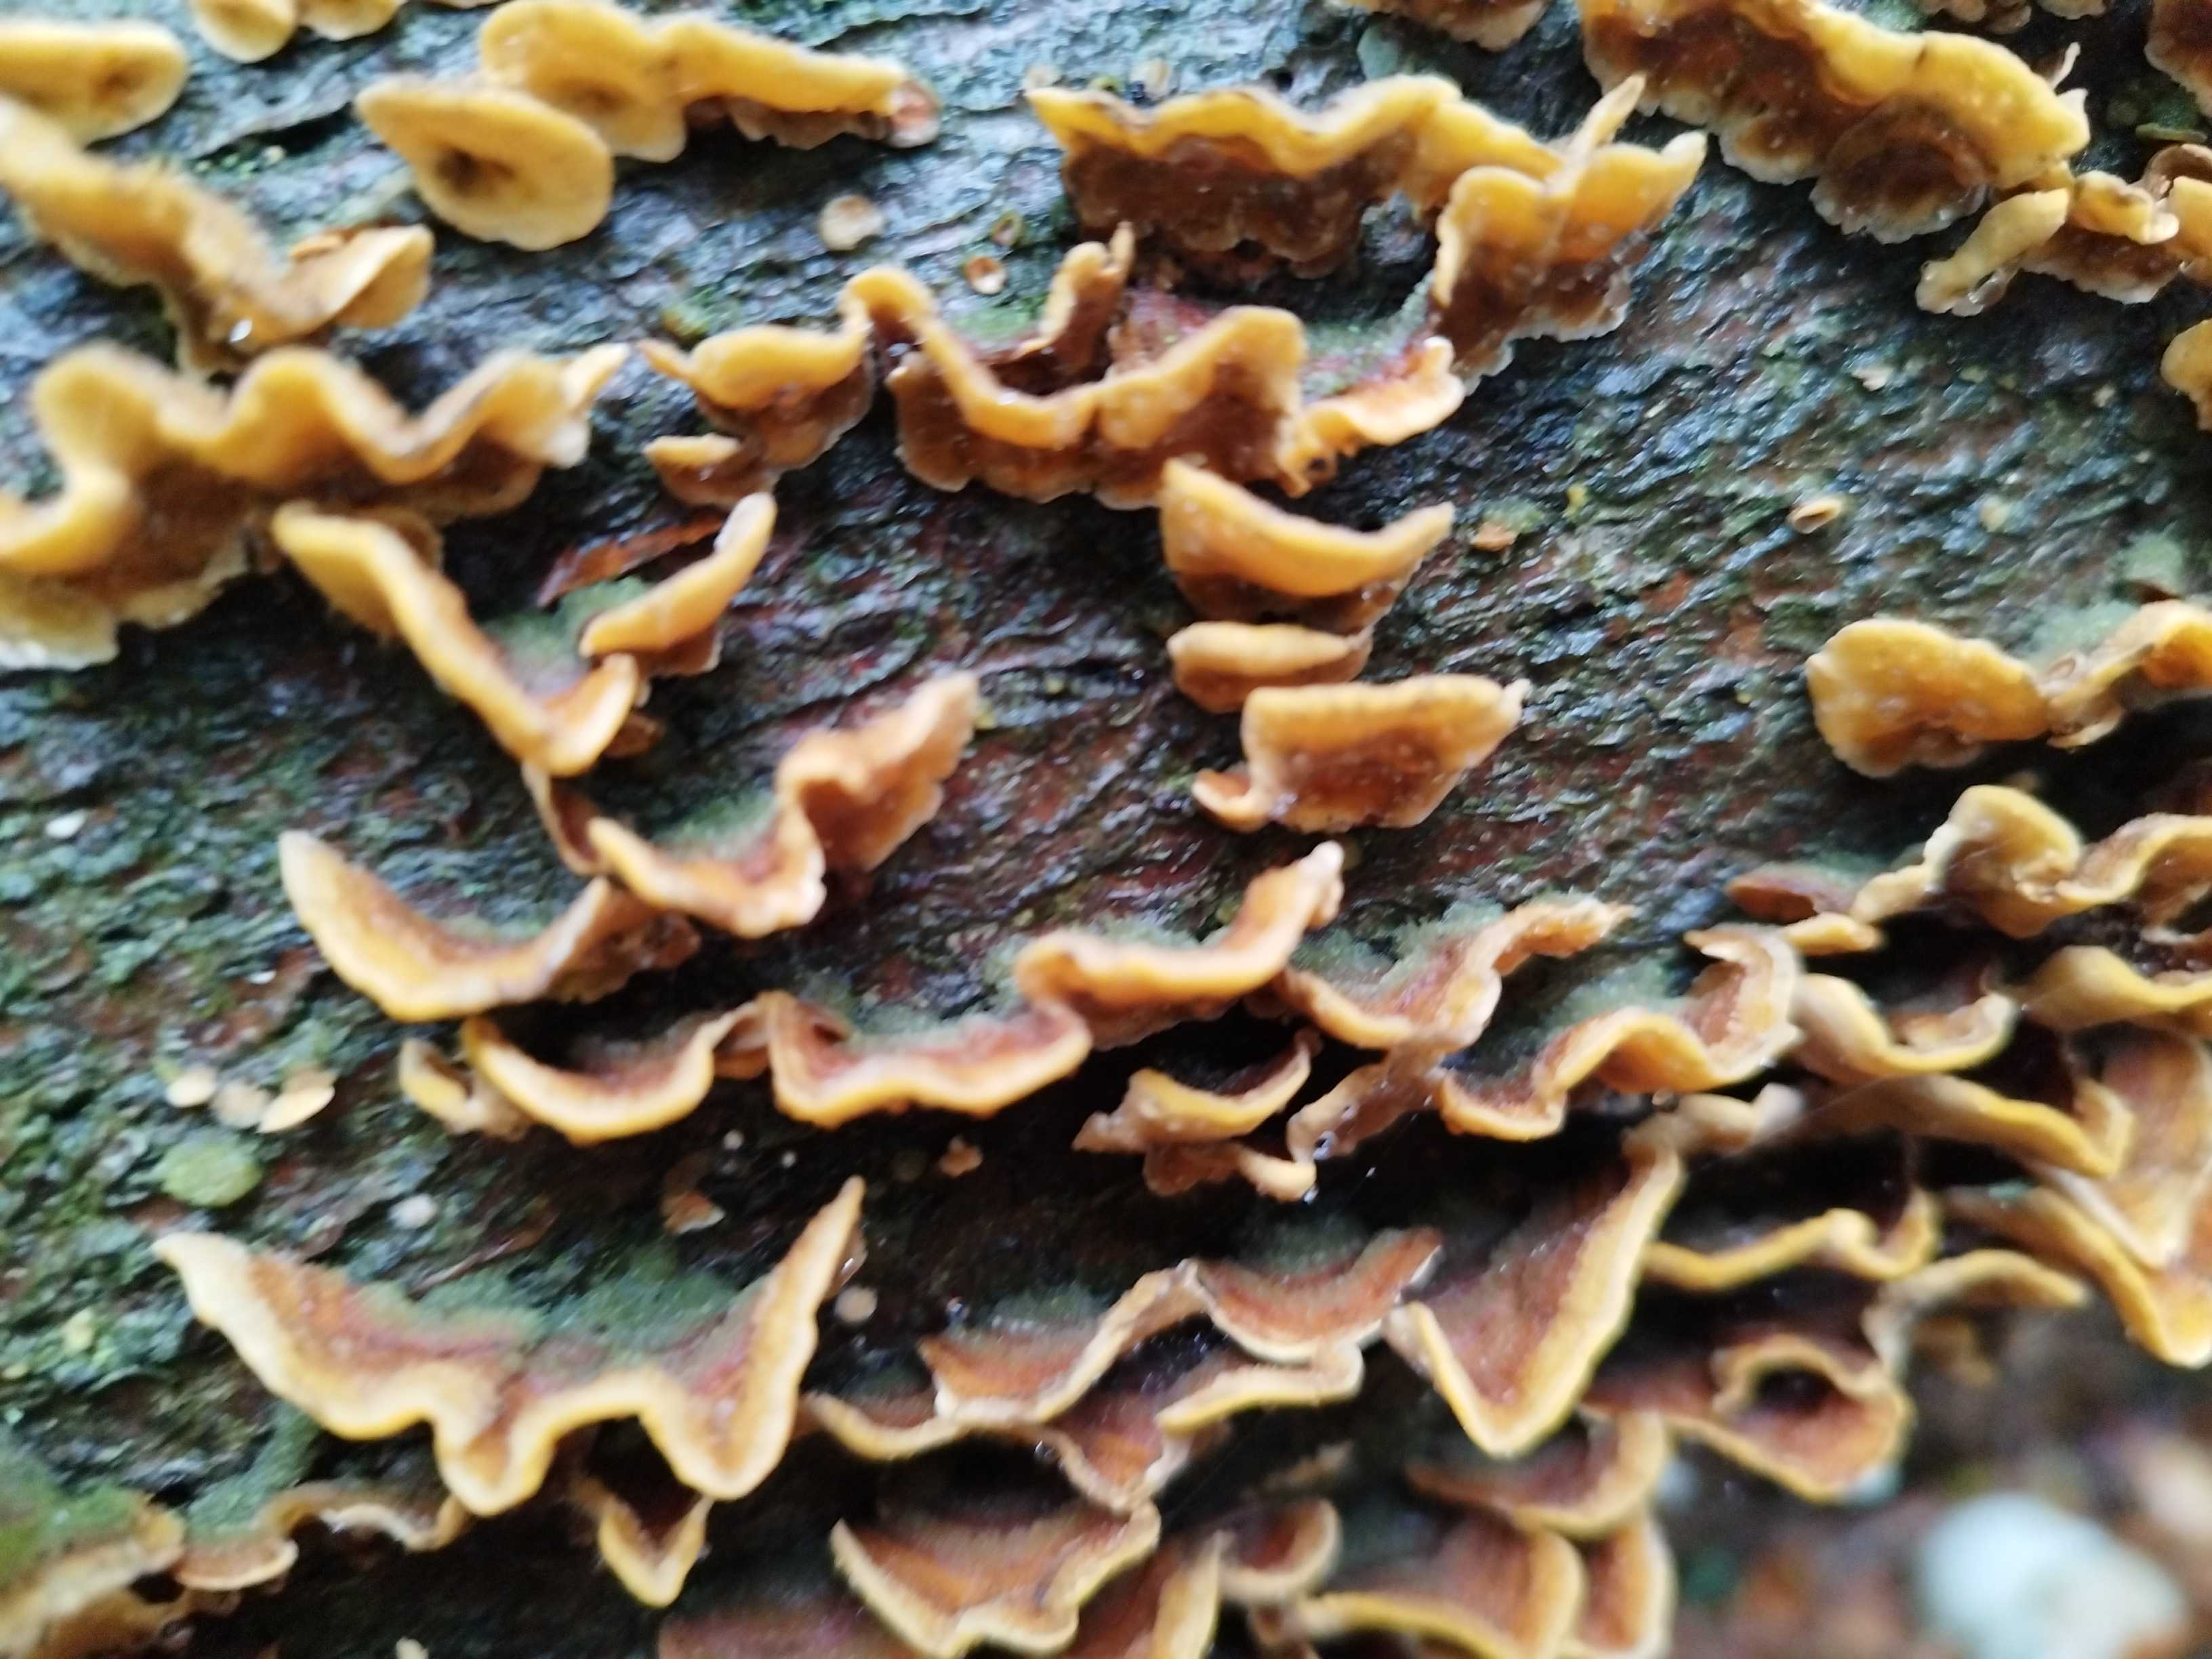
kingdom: Fungi
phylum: Basidiomycota
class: Agaricomycetes
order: Russulales
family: Stereaceae
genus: Stereum
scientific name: Stereum hirsutum
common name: håret lædersvamp
